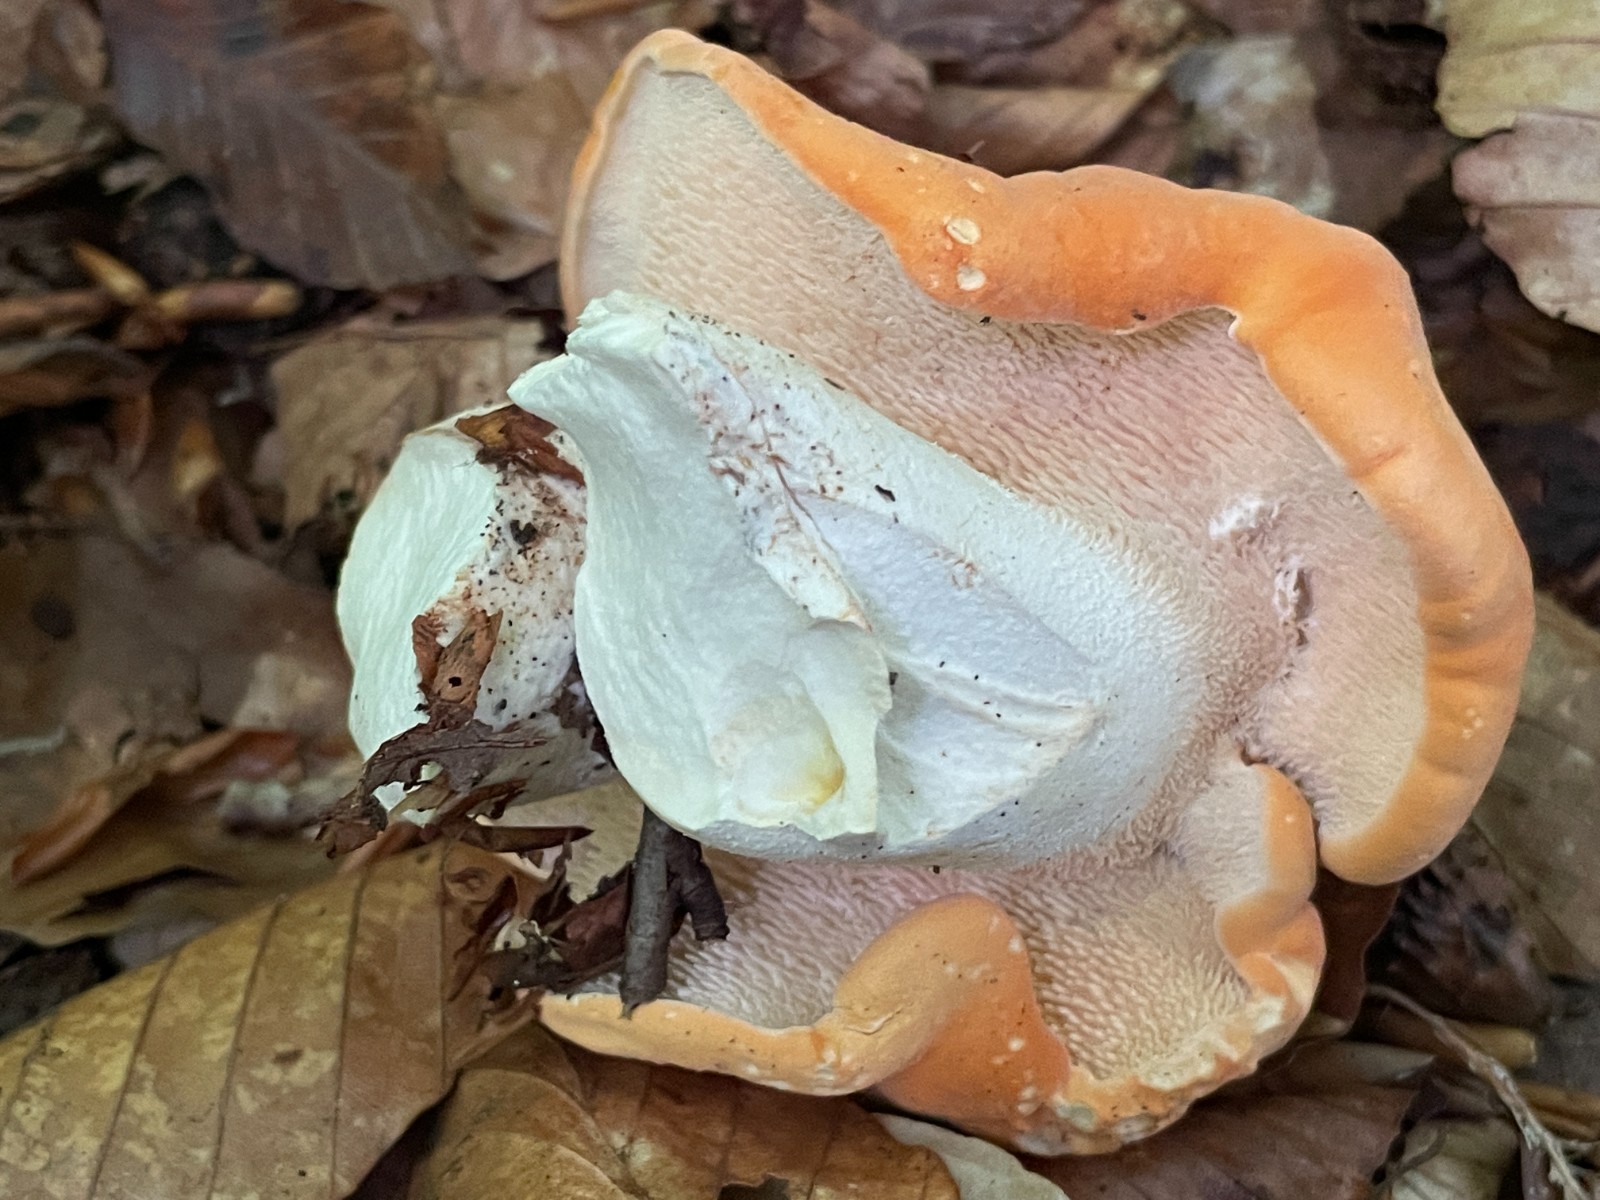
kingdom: Fungi
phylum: Basidiomycota
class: Agaricomycetes
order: Cantharellales
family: Hydnaceae
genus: Hydnum
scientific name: Hydnum rufescens
